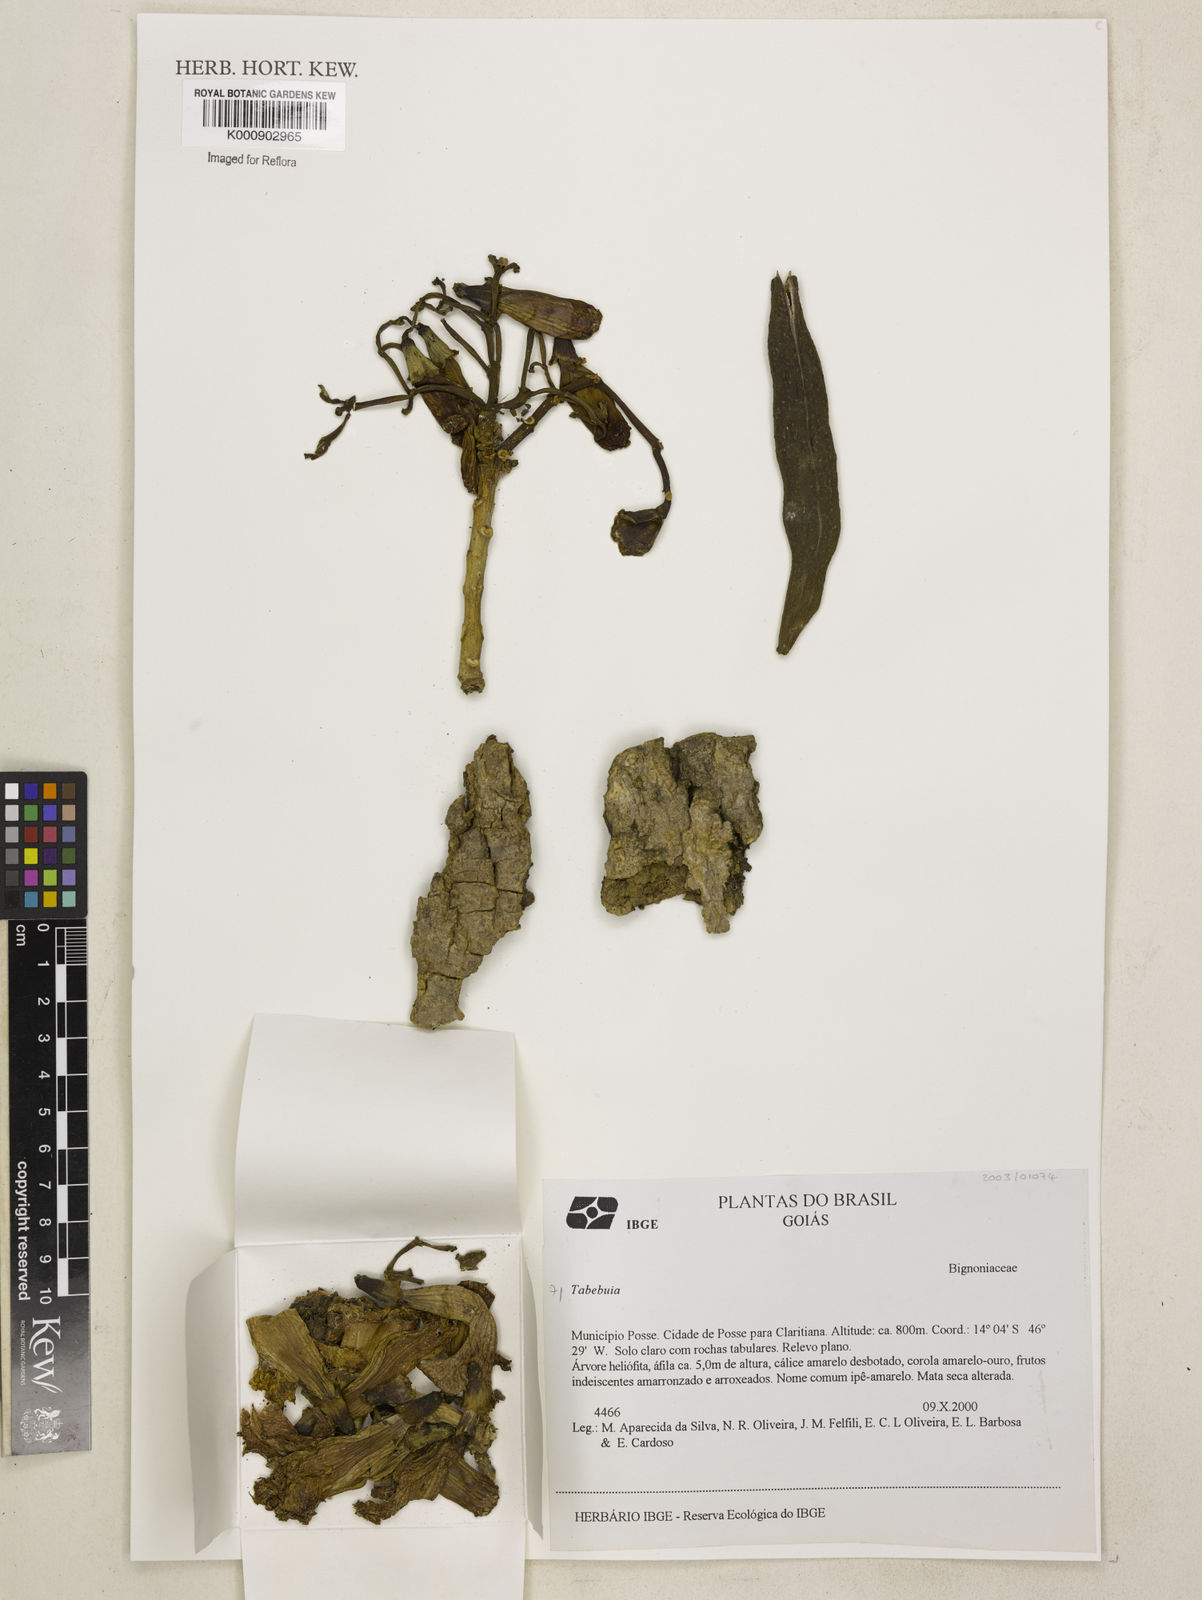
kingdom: Plantae
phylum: Tracheophyta
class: Magnoliopsida
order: Lamiales
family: Bignoniaceae
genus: Tabebuia
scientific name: Tabebuia
